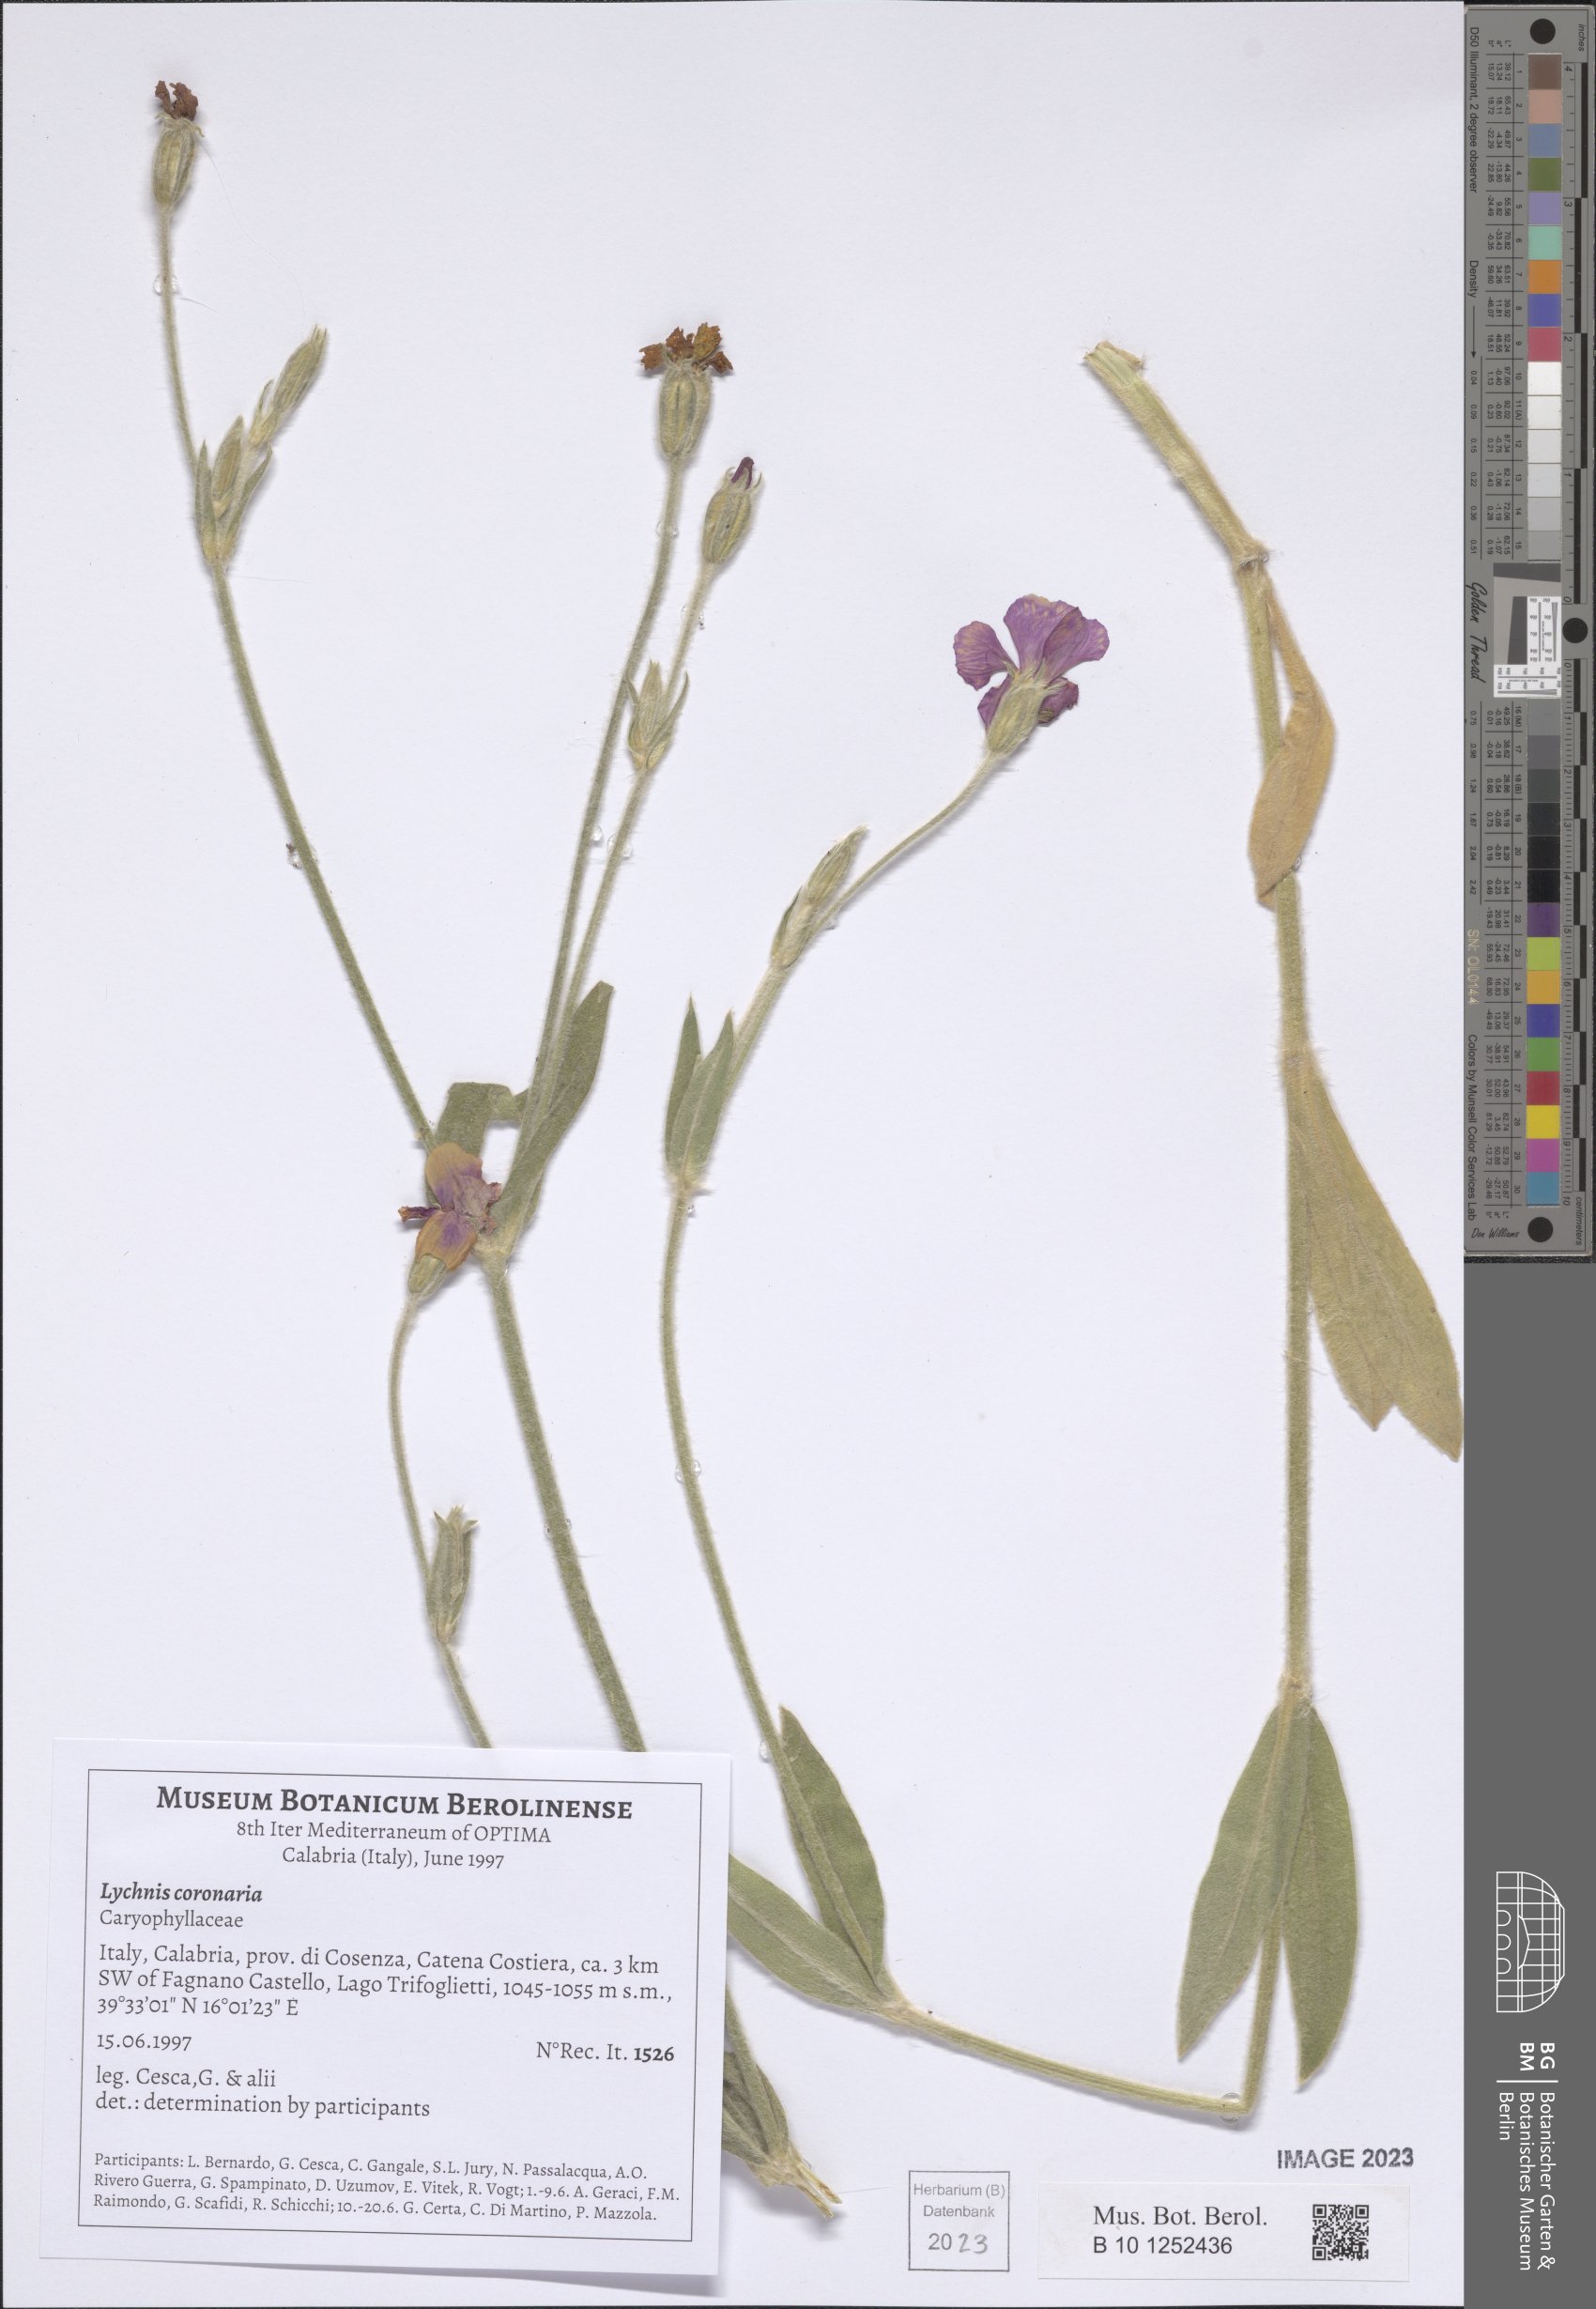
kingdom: Plantae
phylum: Tracheophyta
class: Magnoliopsida
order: Caryophyllales
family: Caryophyllaceae
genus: Silene
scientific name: Silene coronaria
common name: Rose campion
